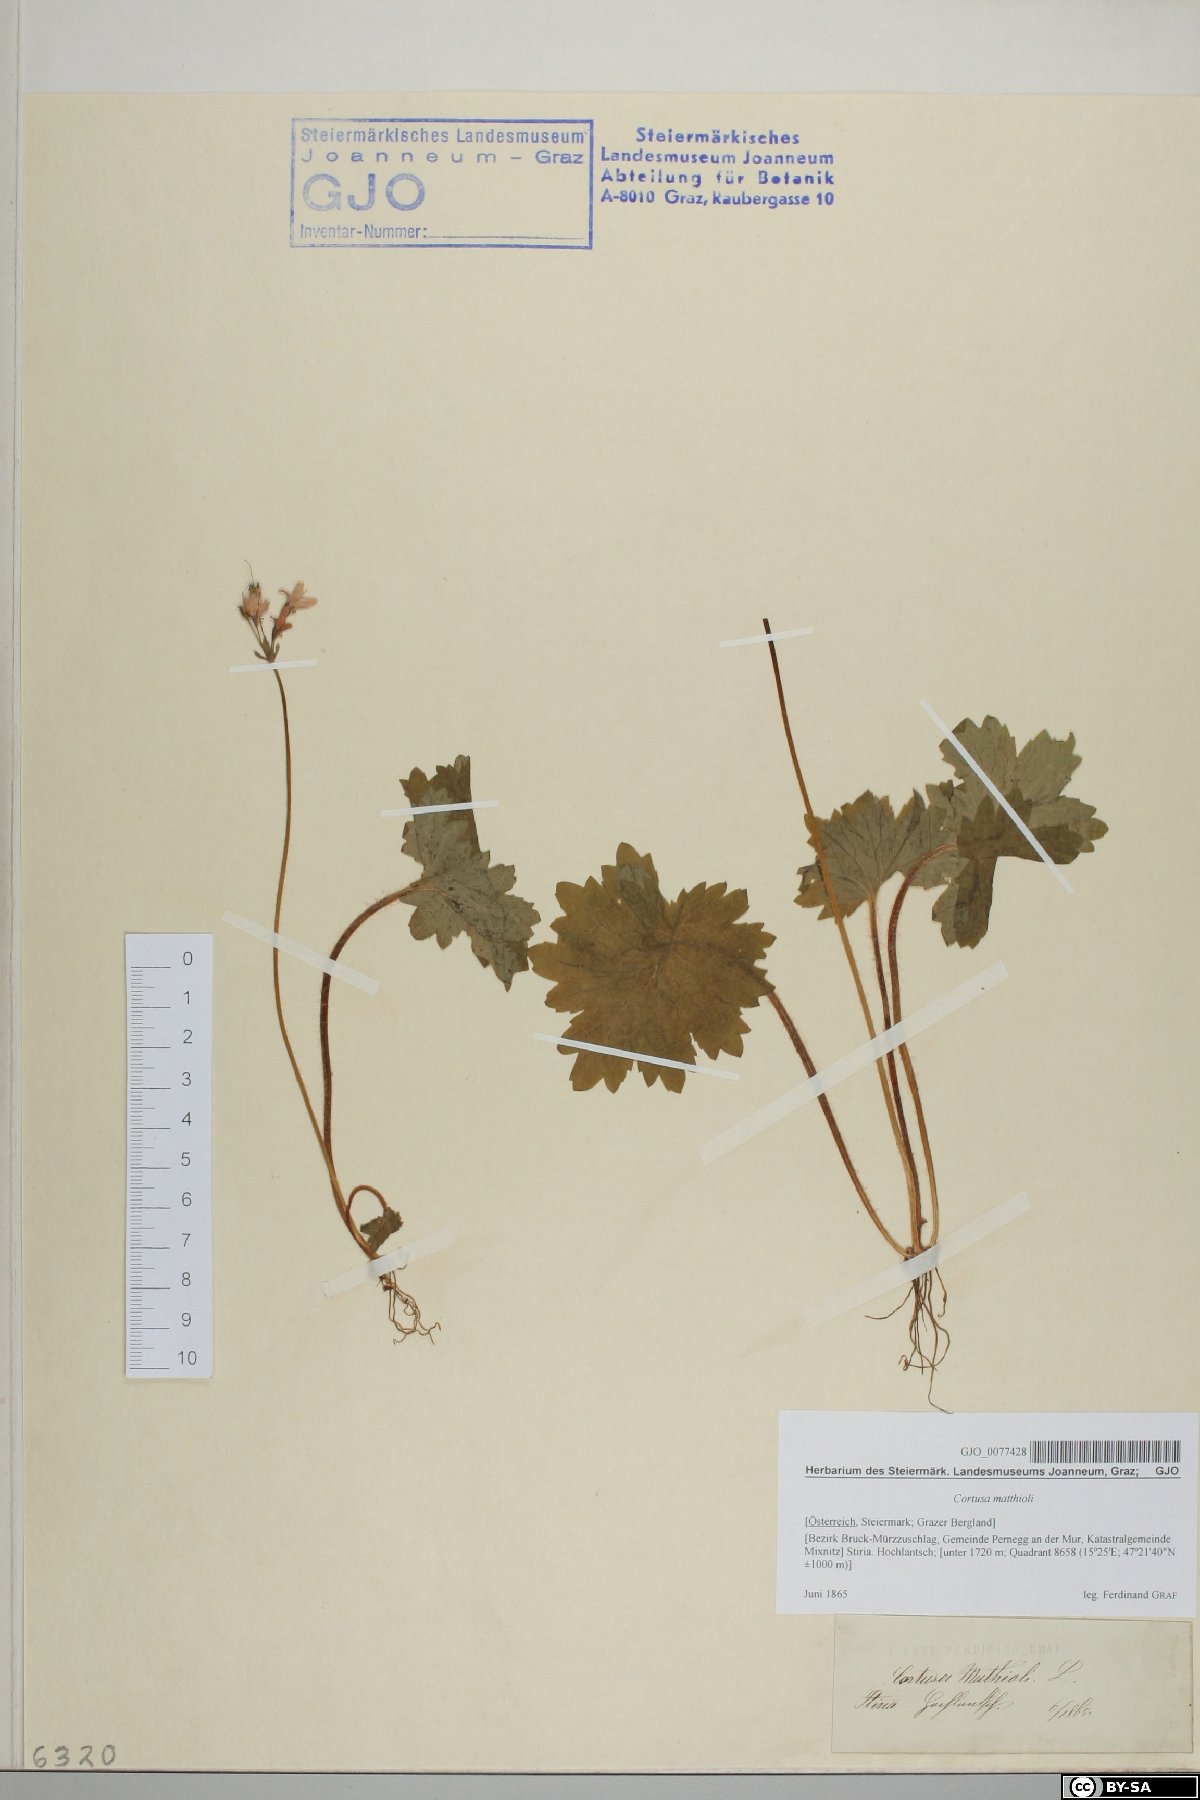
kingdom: Plantae
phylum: Tracheophyta
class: Magnoliopsida
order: Ericales
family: Primulaceae
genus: Primula
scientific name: Primula matthioli
